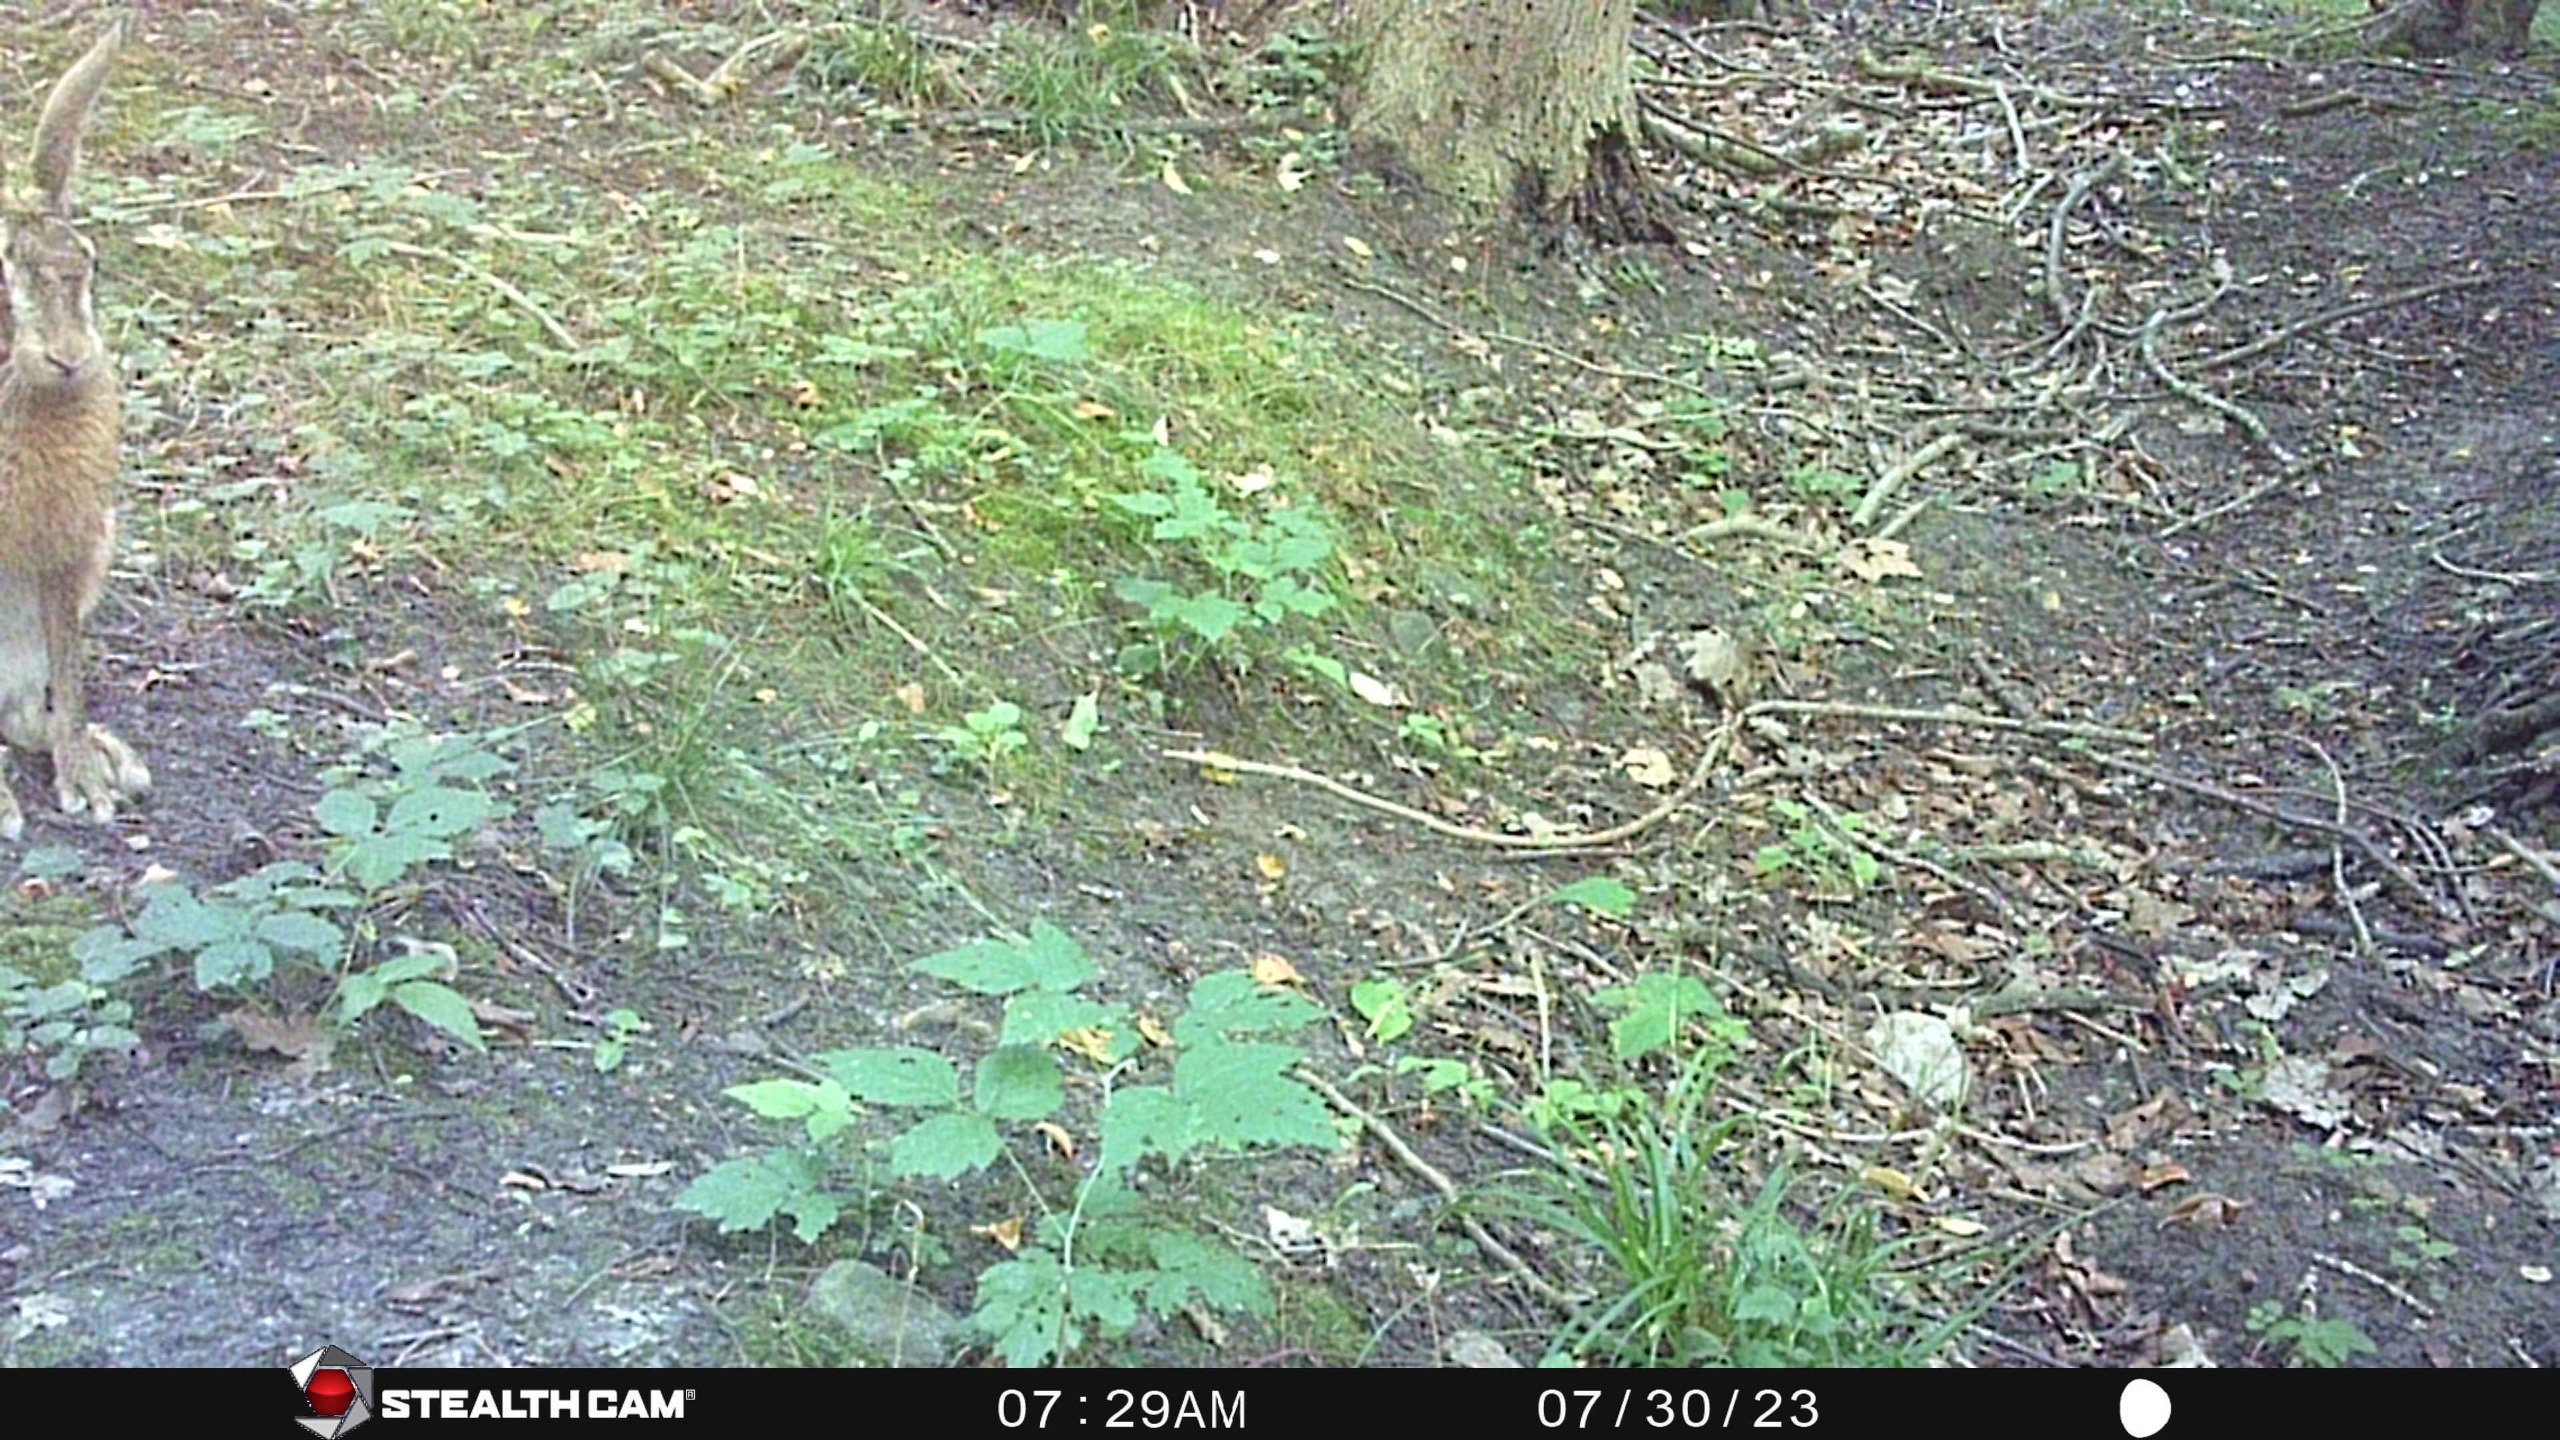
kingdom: Animalia
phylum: Chordata
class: Mammalia
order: Lagomorpha
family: Leporidae
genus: Lepus
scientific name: Lepus europaeus
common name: Hare
